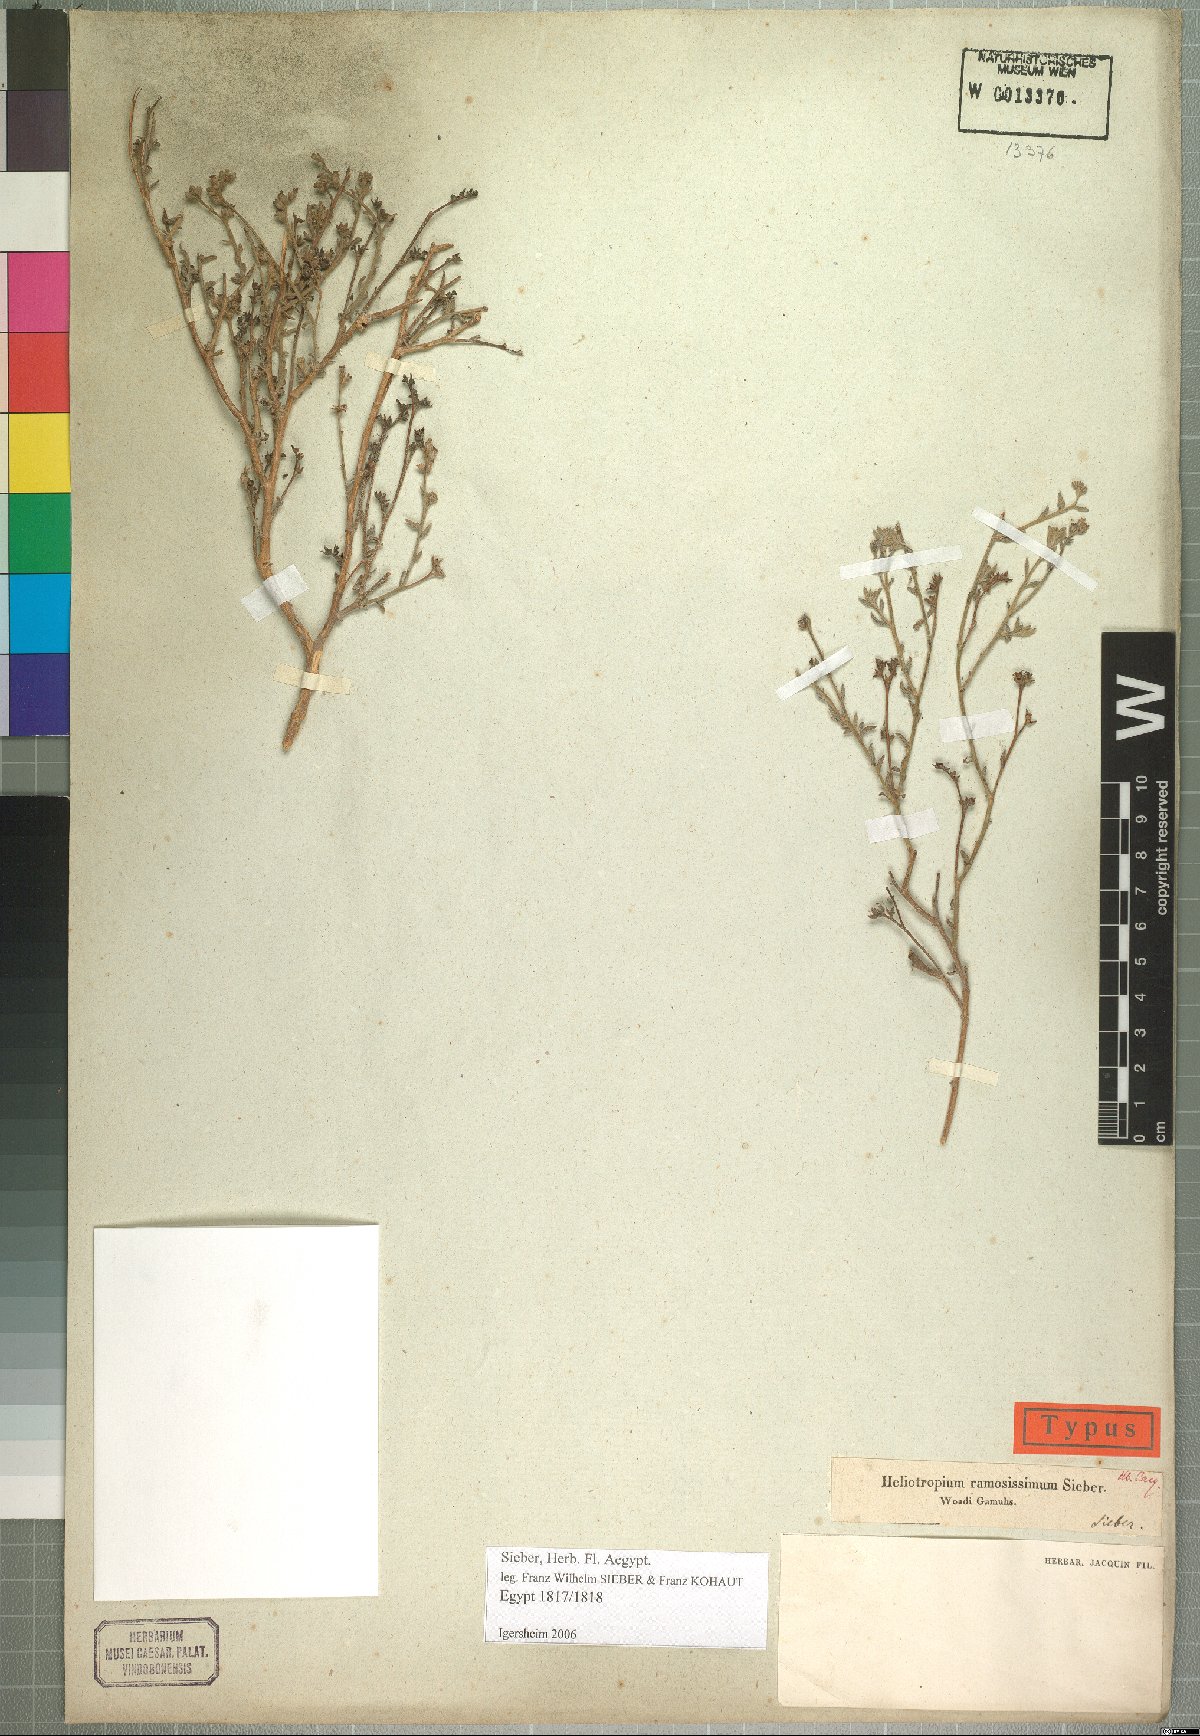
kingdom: Plantae
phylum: Tracheophyta
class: Magnoliopsida
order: Boraginales
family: Heliotropiaceae
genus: Heliotropium
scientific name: Heliotropium bacciferum
